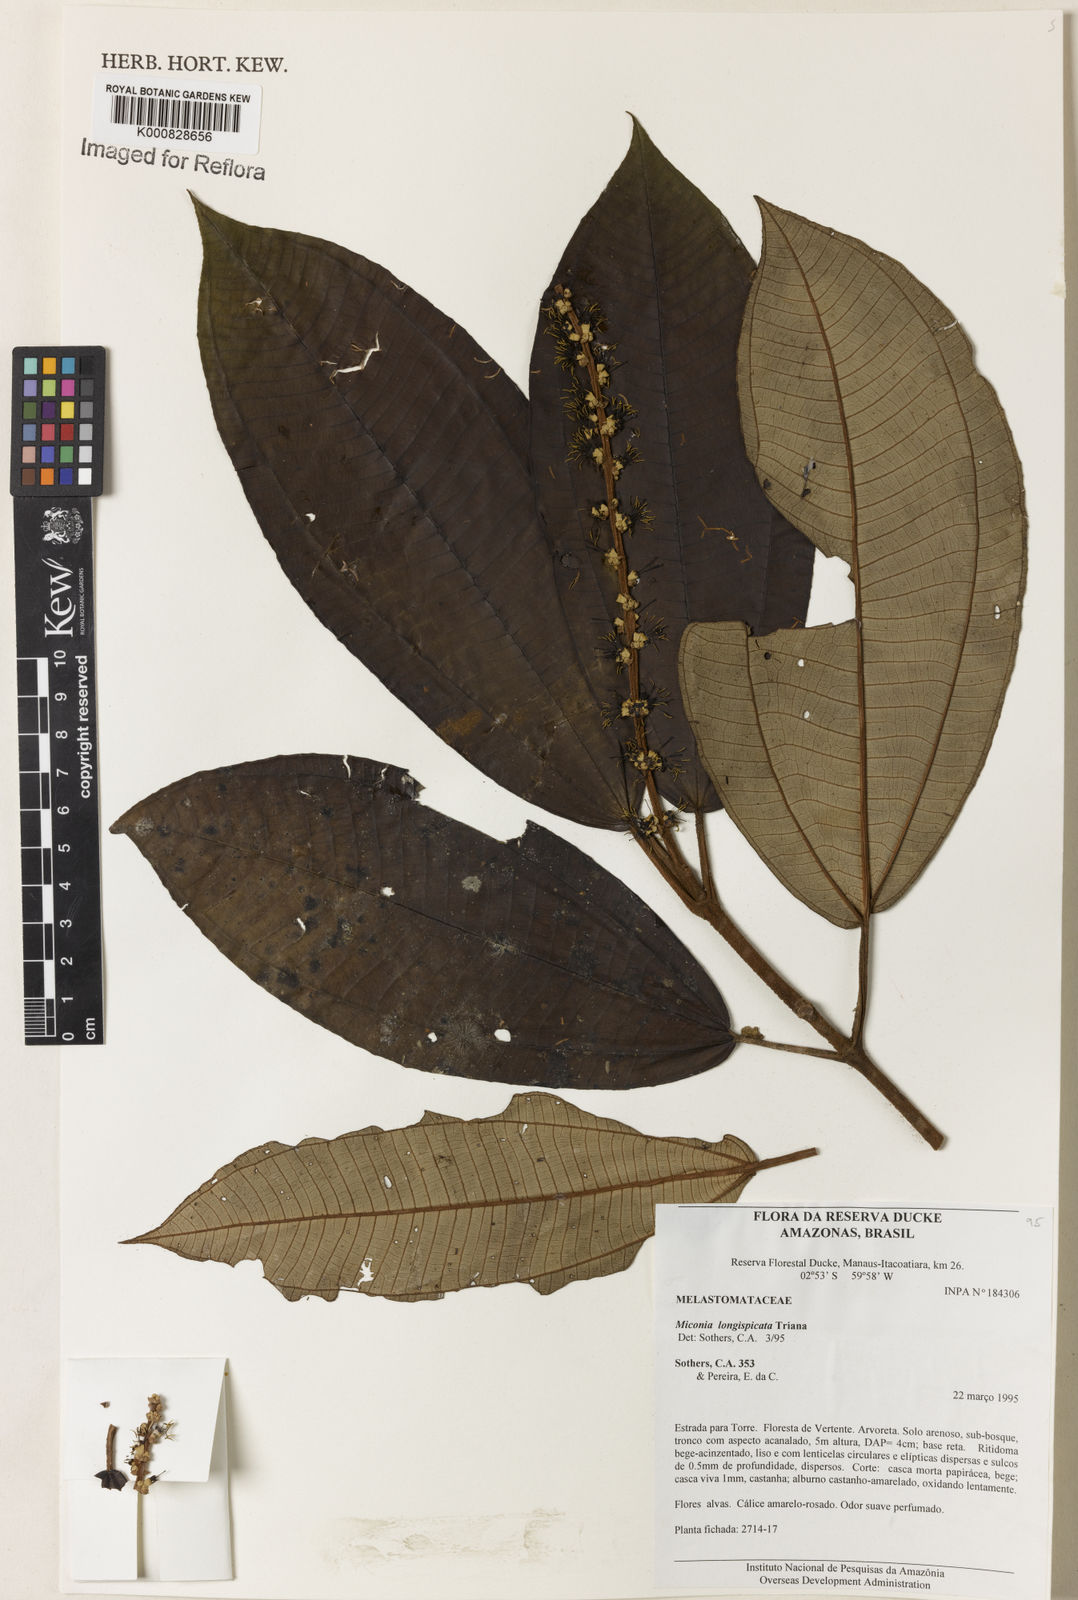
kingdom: Plantae
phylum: Tracheophyta
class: Magnoliopsida
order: Myrtales
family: Melastomataceae
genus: Miconia
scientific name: Miconia longispicata
